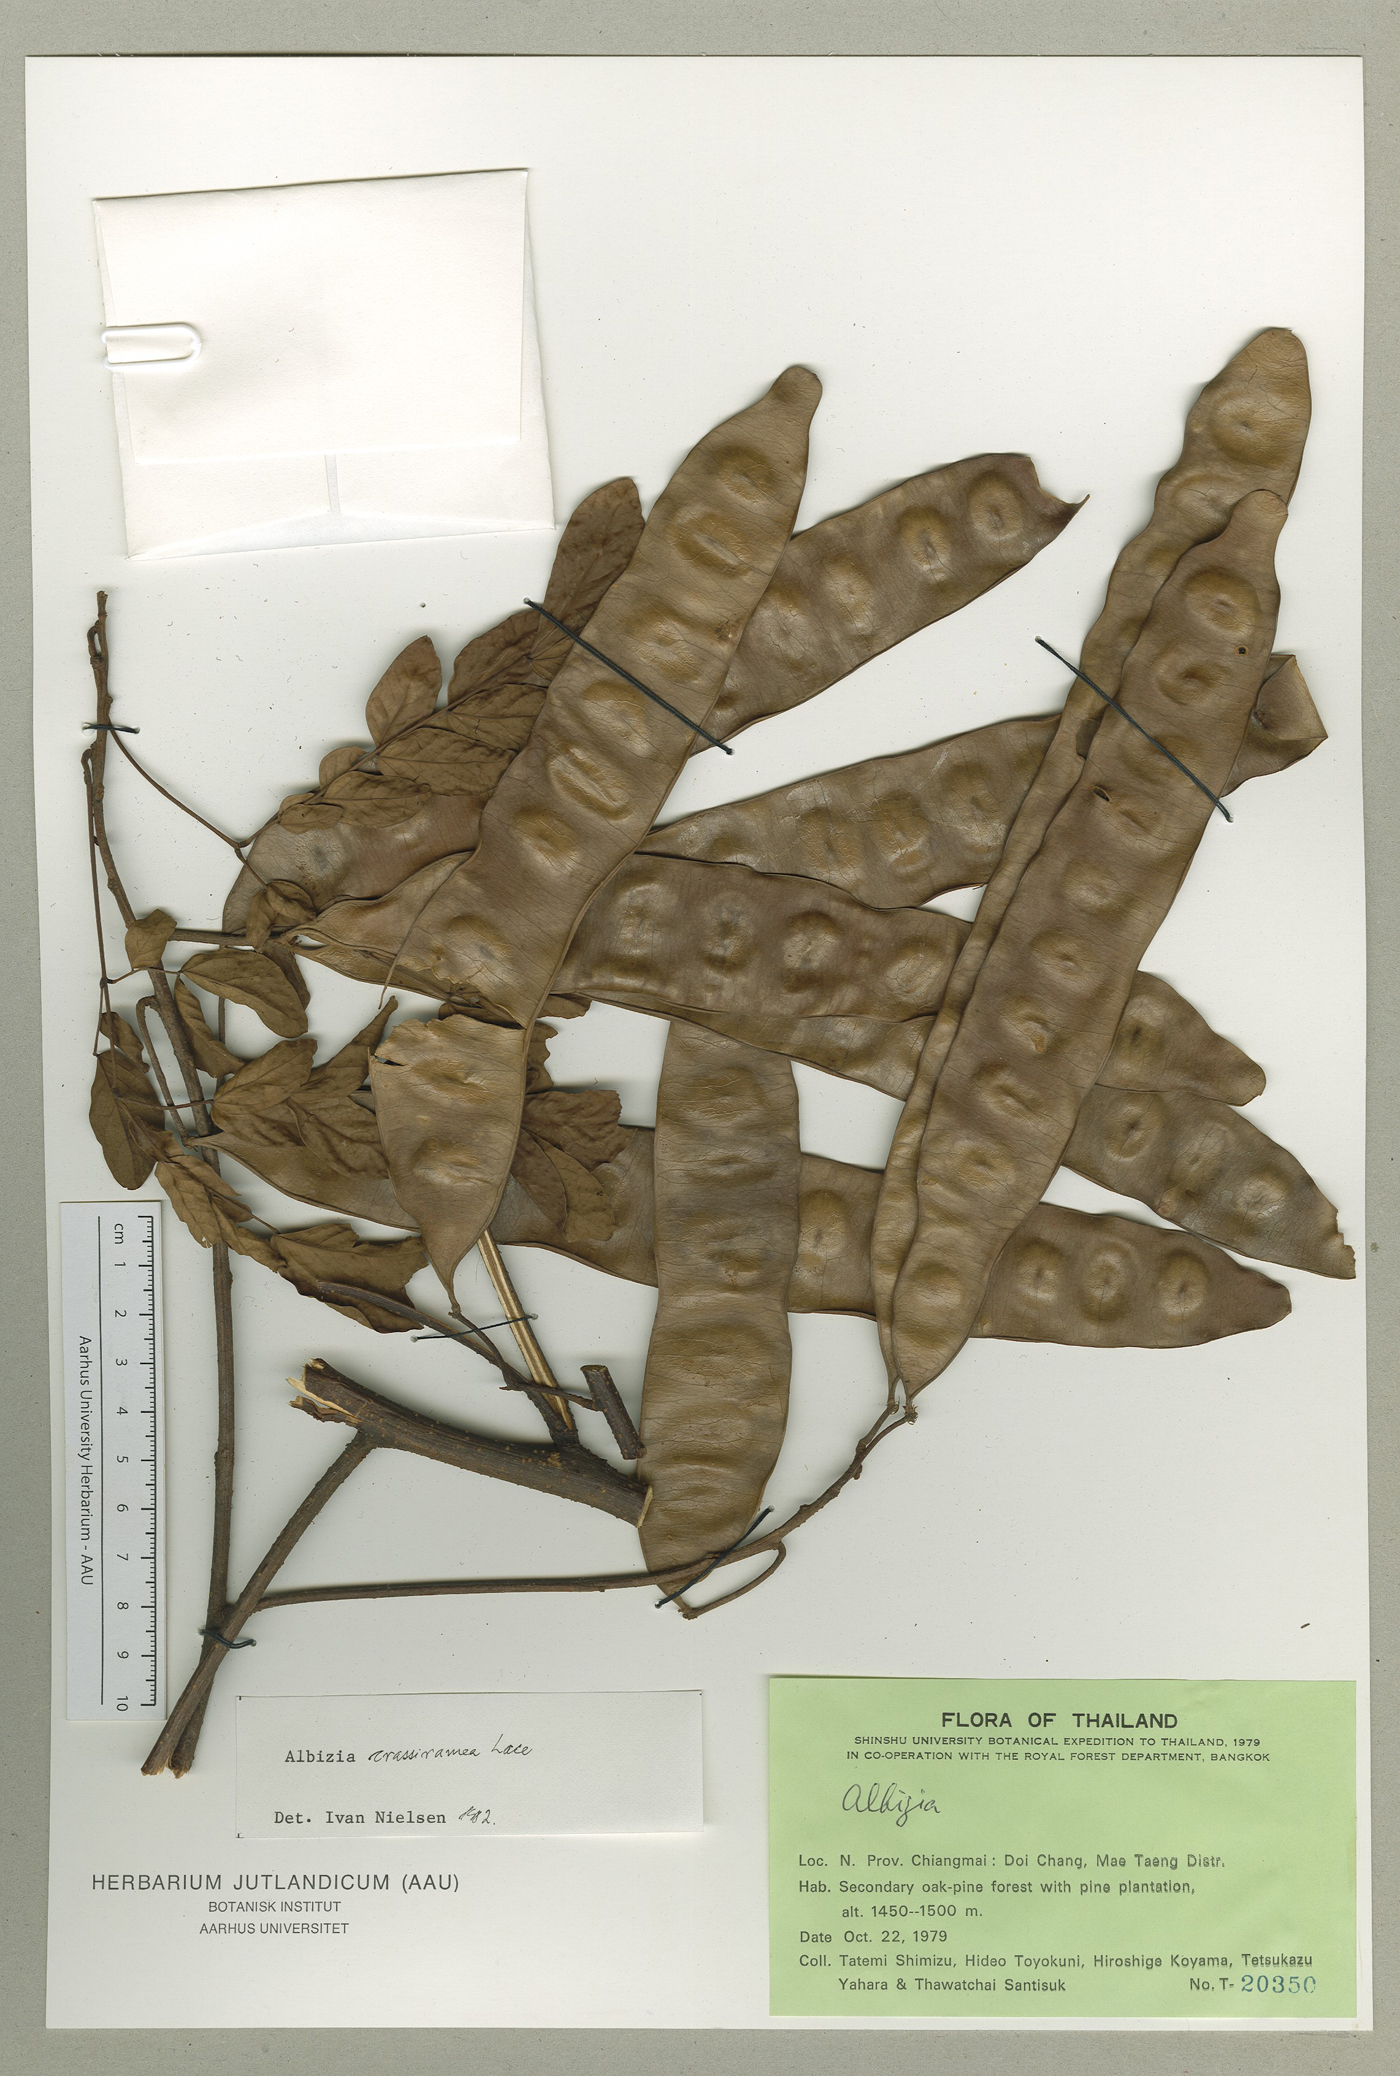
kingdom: Plantae
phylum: Tracheophyta
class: Magnoliopsida
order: Fabales
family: Fabaceae
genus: Albizia
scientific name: Albizia crassiramea
